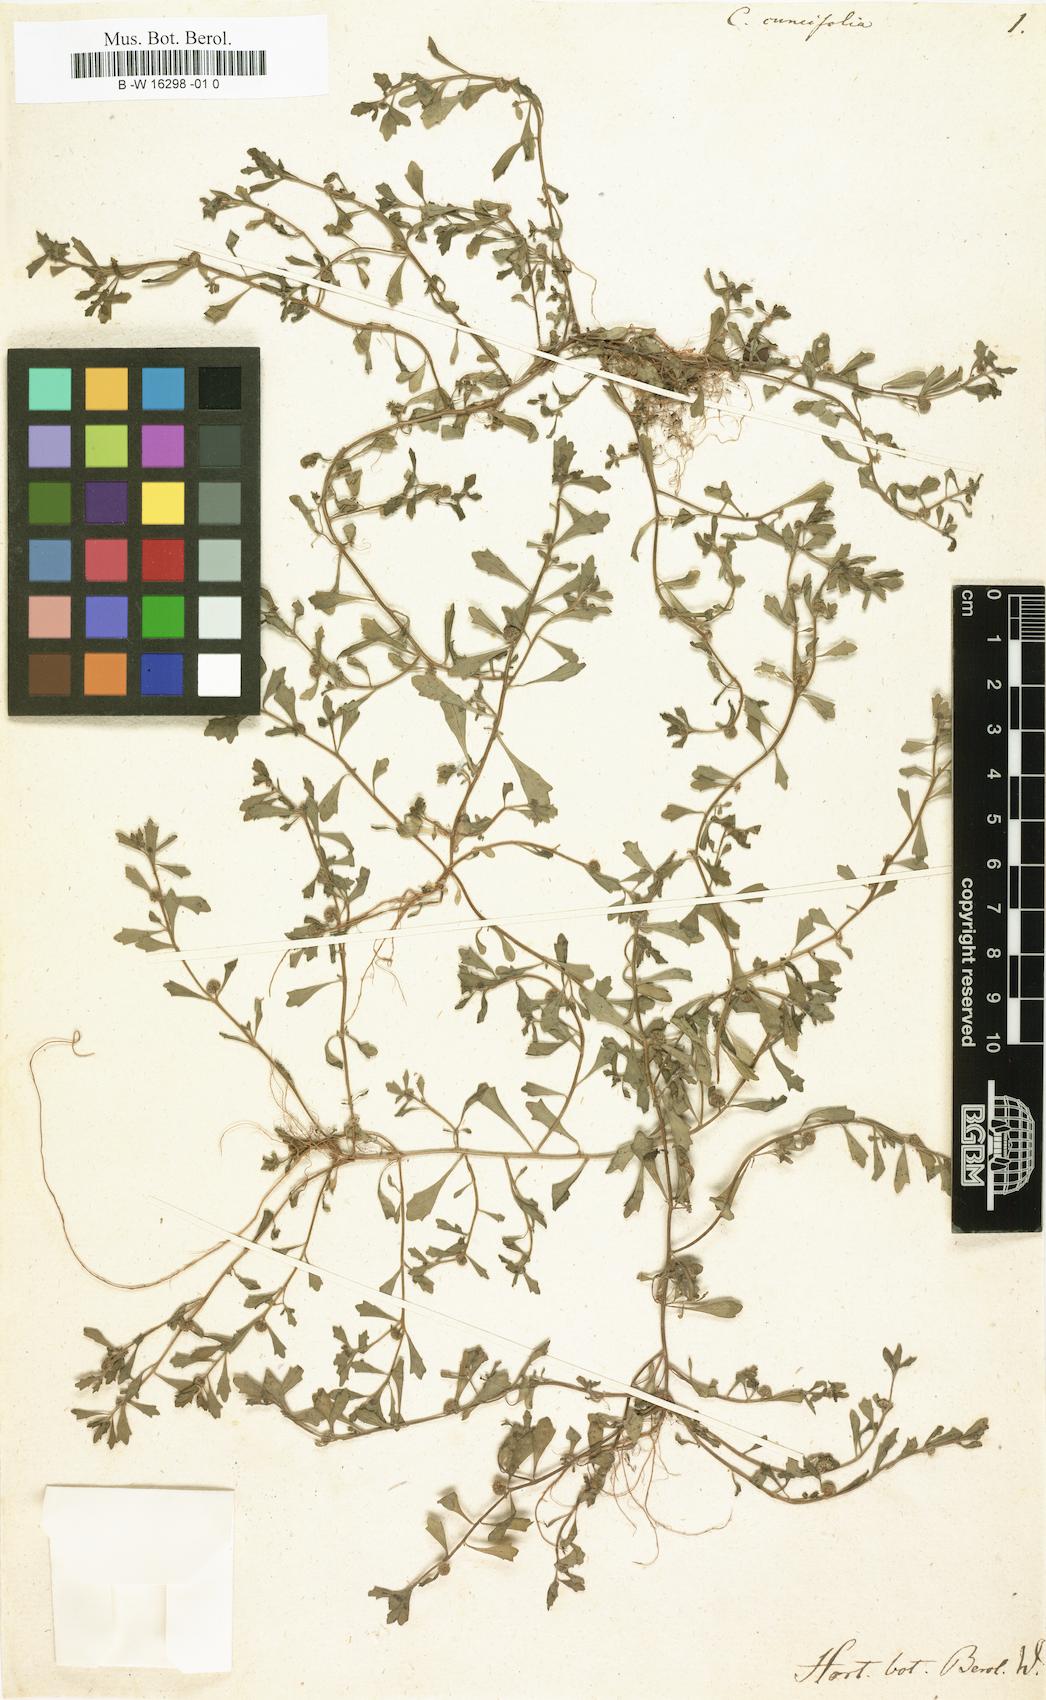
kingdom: Plantae
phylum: Tracheophyta
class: Magnoliopsida
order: Asterales
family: Asteraceae
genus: Centipeda
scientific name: Centipeda minima
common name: Spreading sneezeweed
